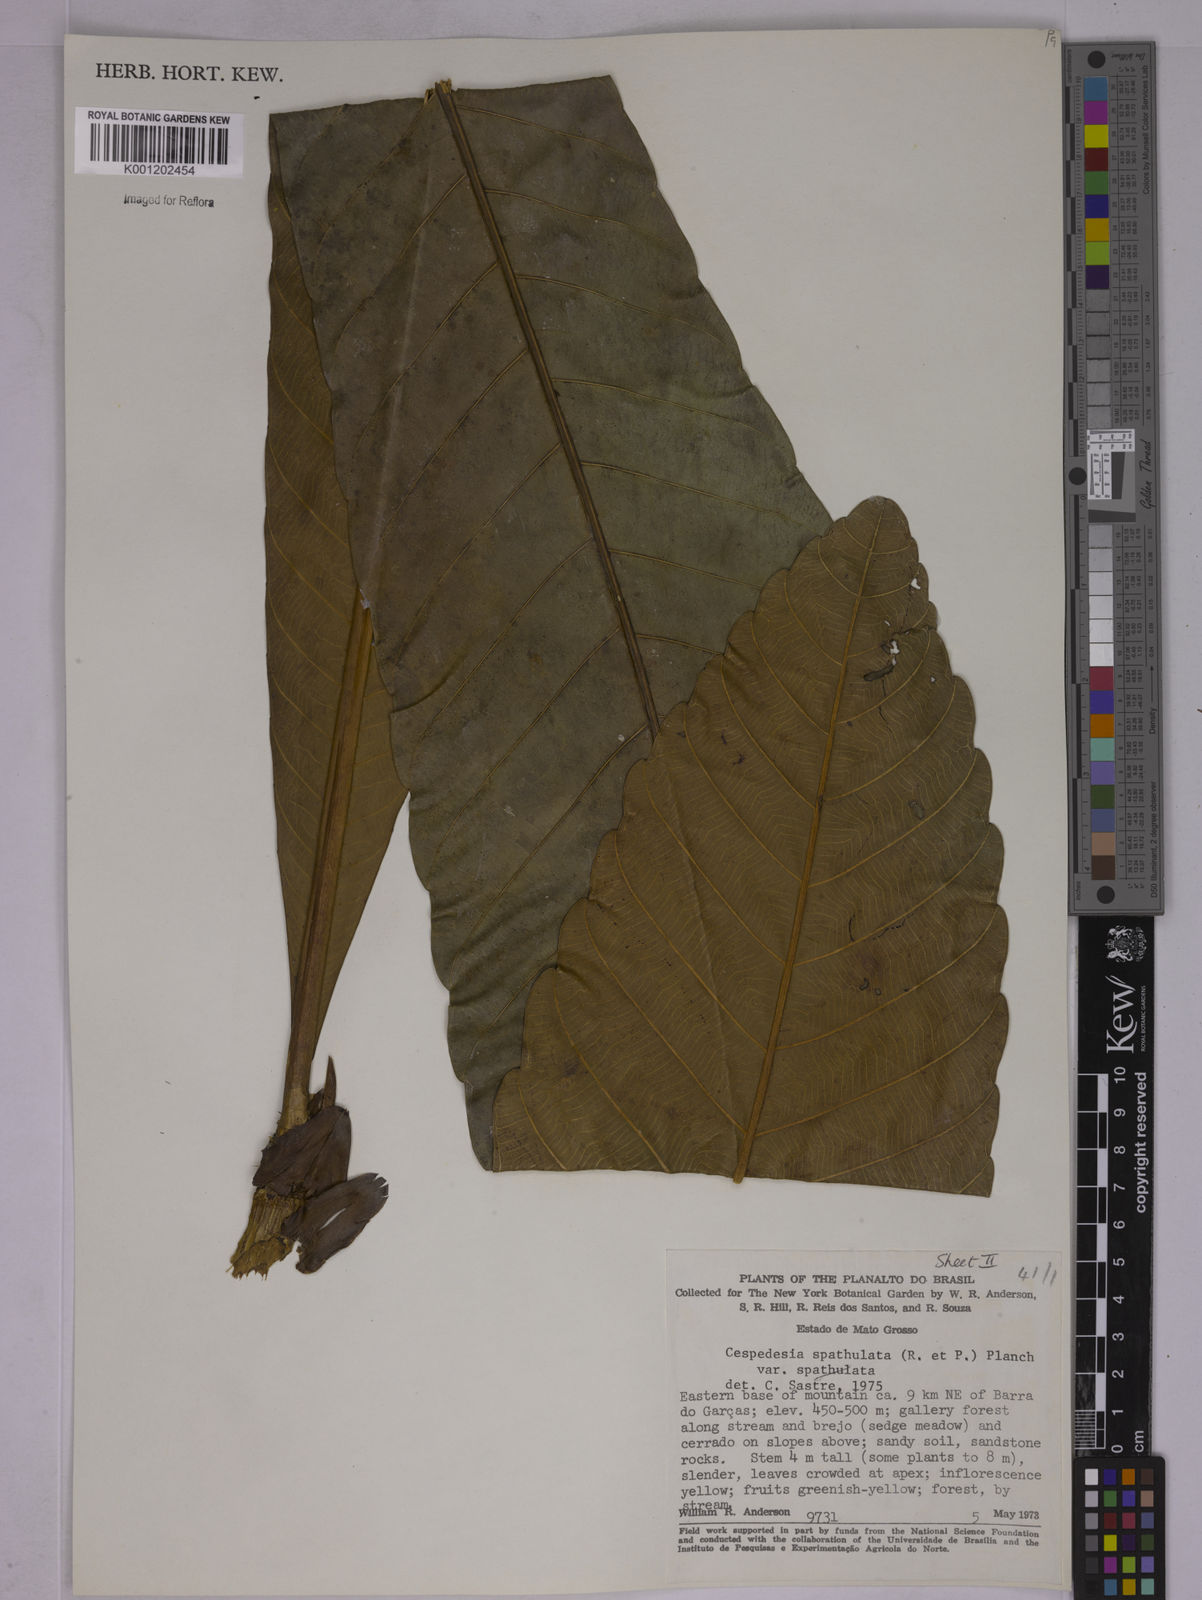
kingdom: Plantae
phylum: Tracheophyta
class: Magnoliopsida
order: Malpighiales
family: Ochnaceae
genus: Cespedesia
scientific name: Cespedesia spathulata
